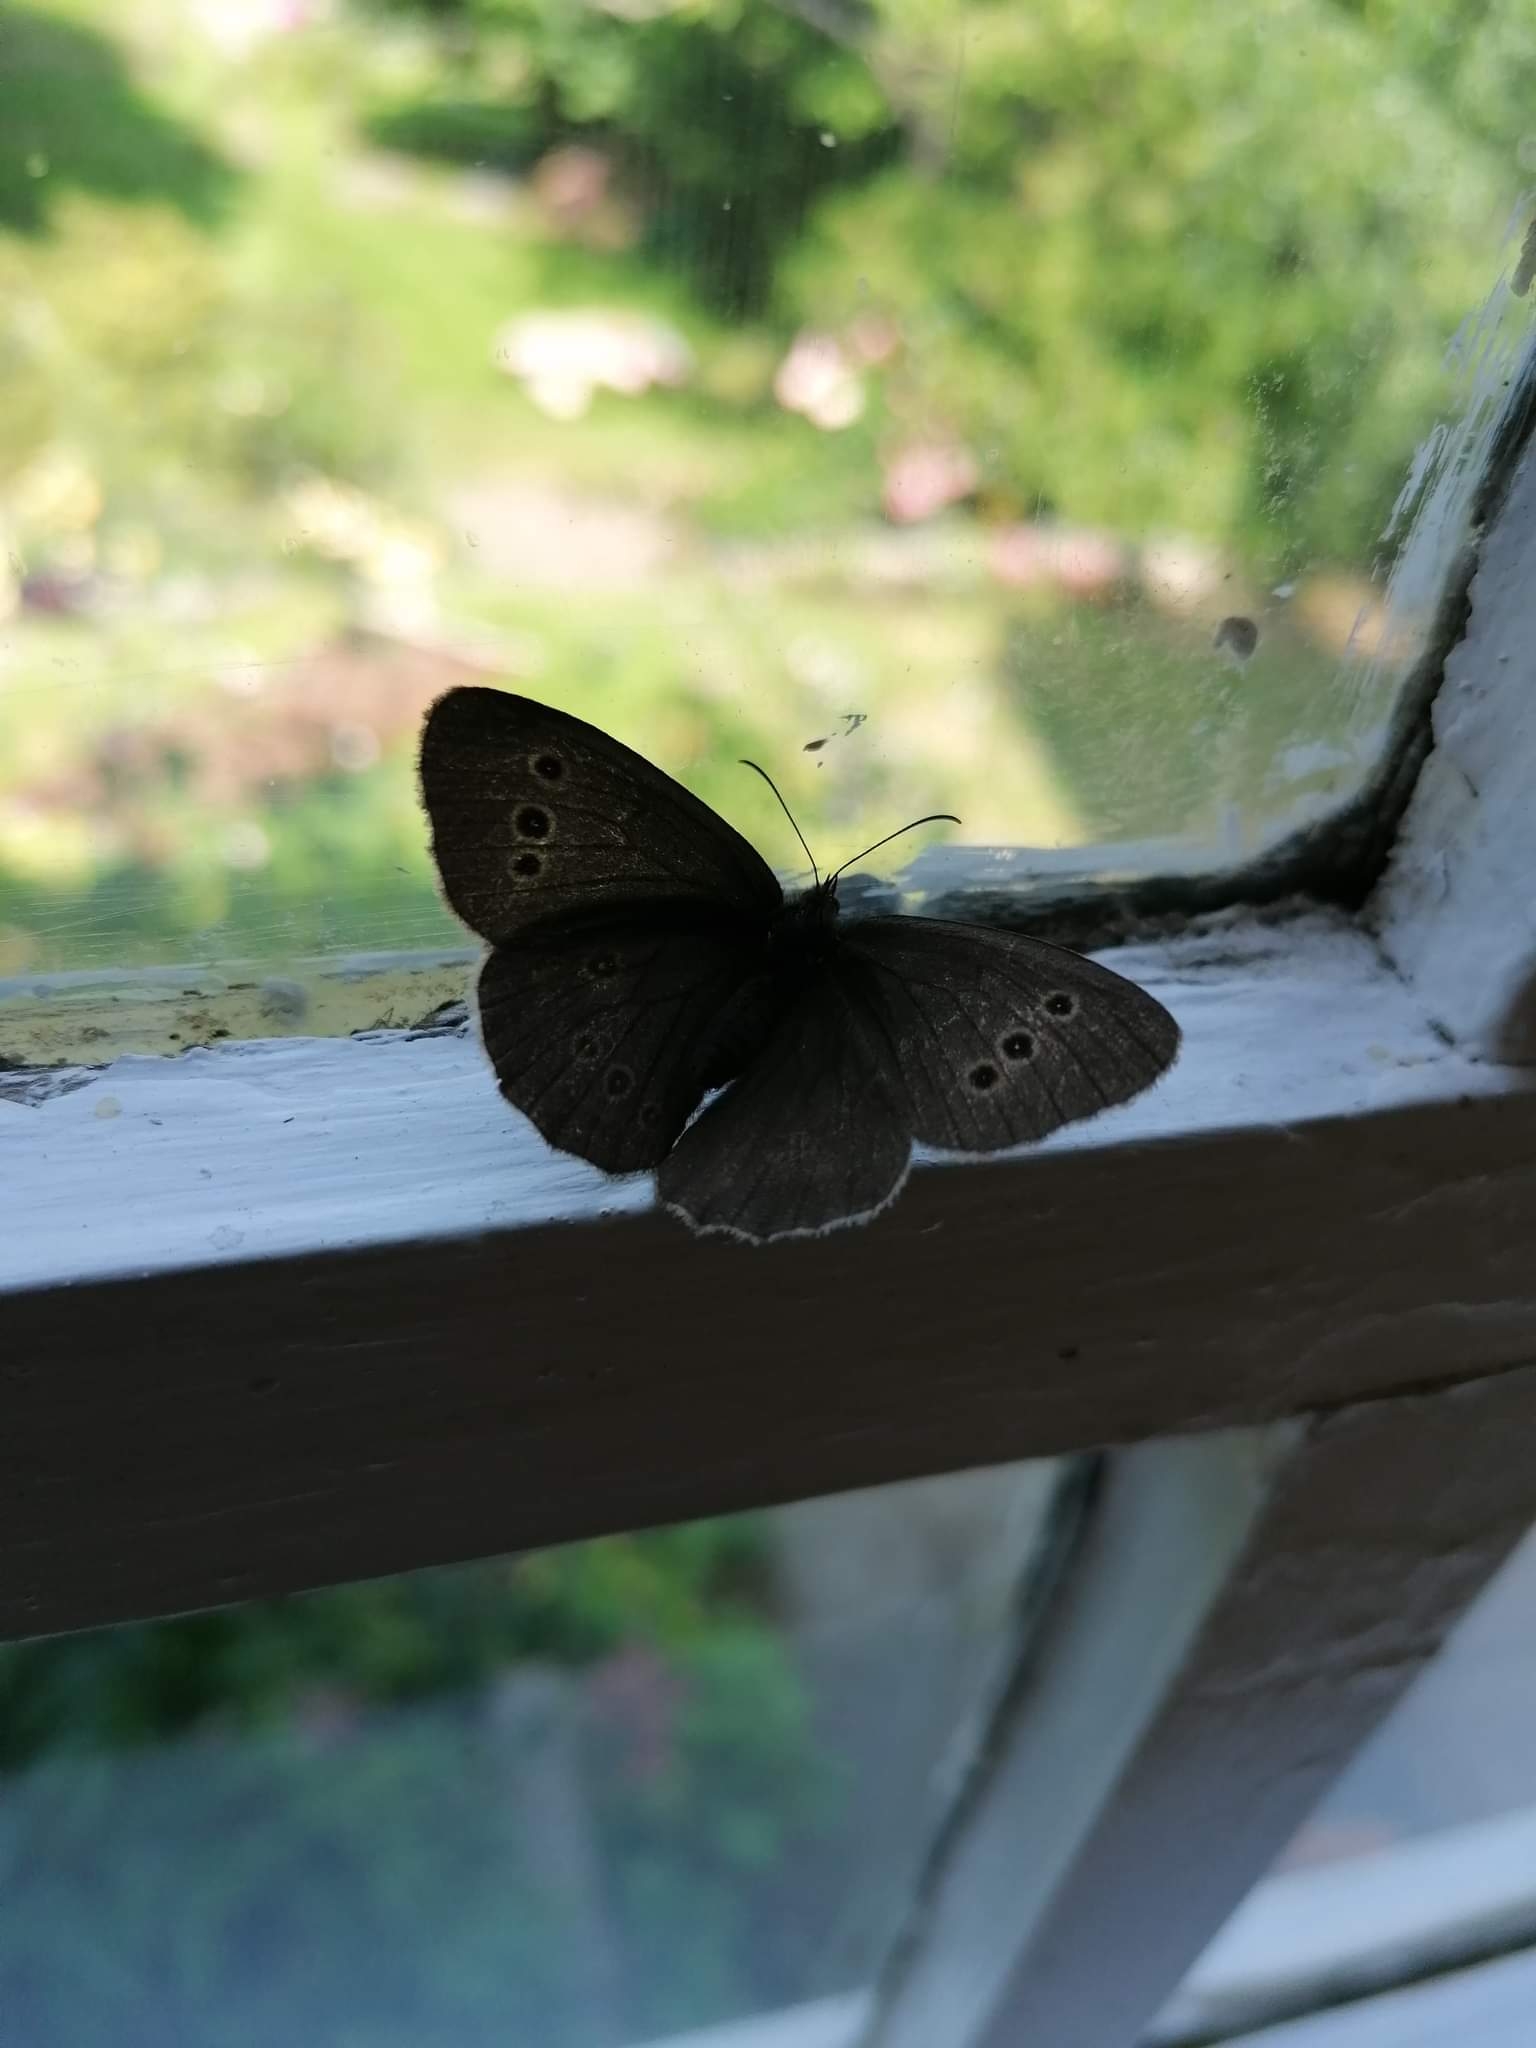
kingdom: Animalia
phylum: Arthropoda
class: Insecta
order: Lepidoptera
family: Nymphalidae
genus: Aphantopus
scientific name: Aphantopus hyperantus
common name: Engrandøje
